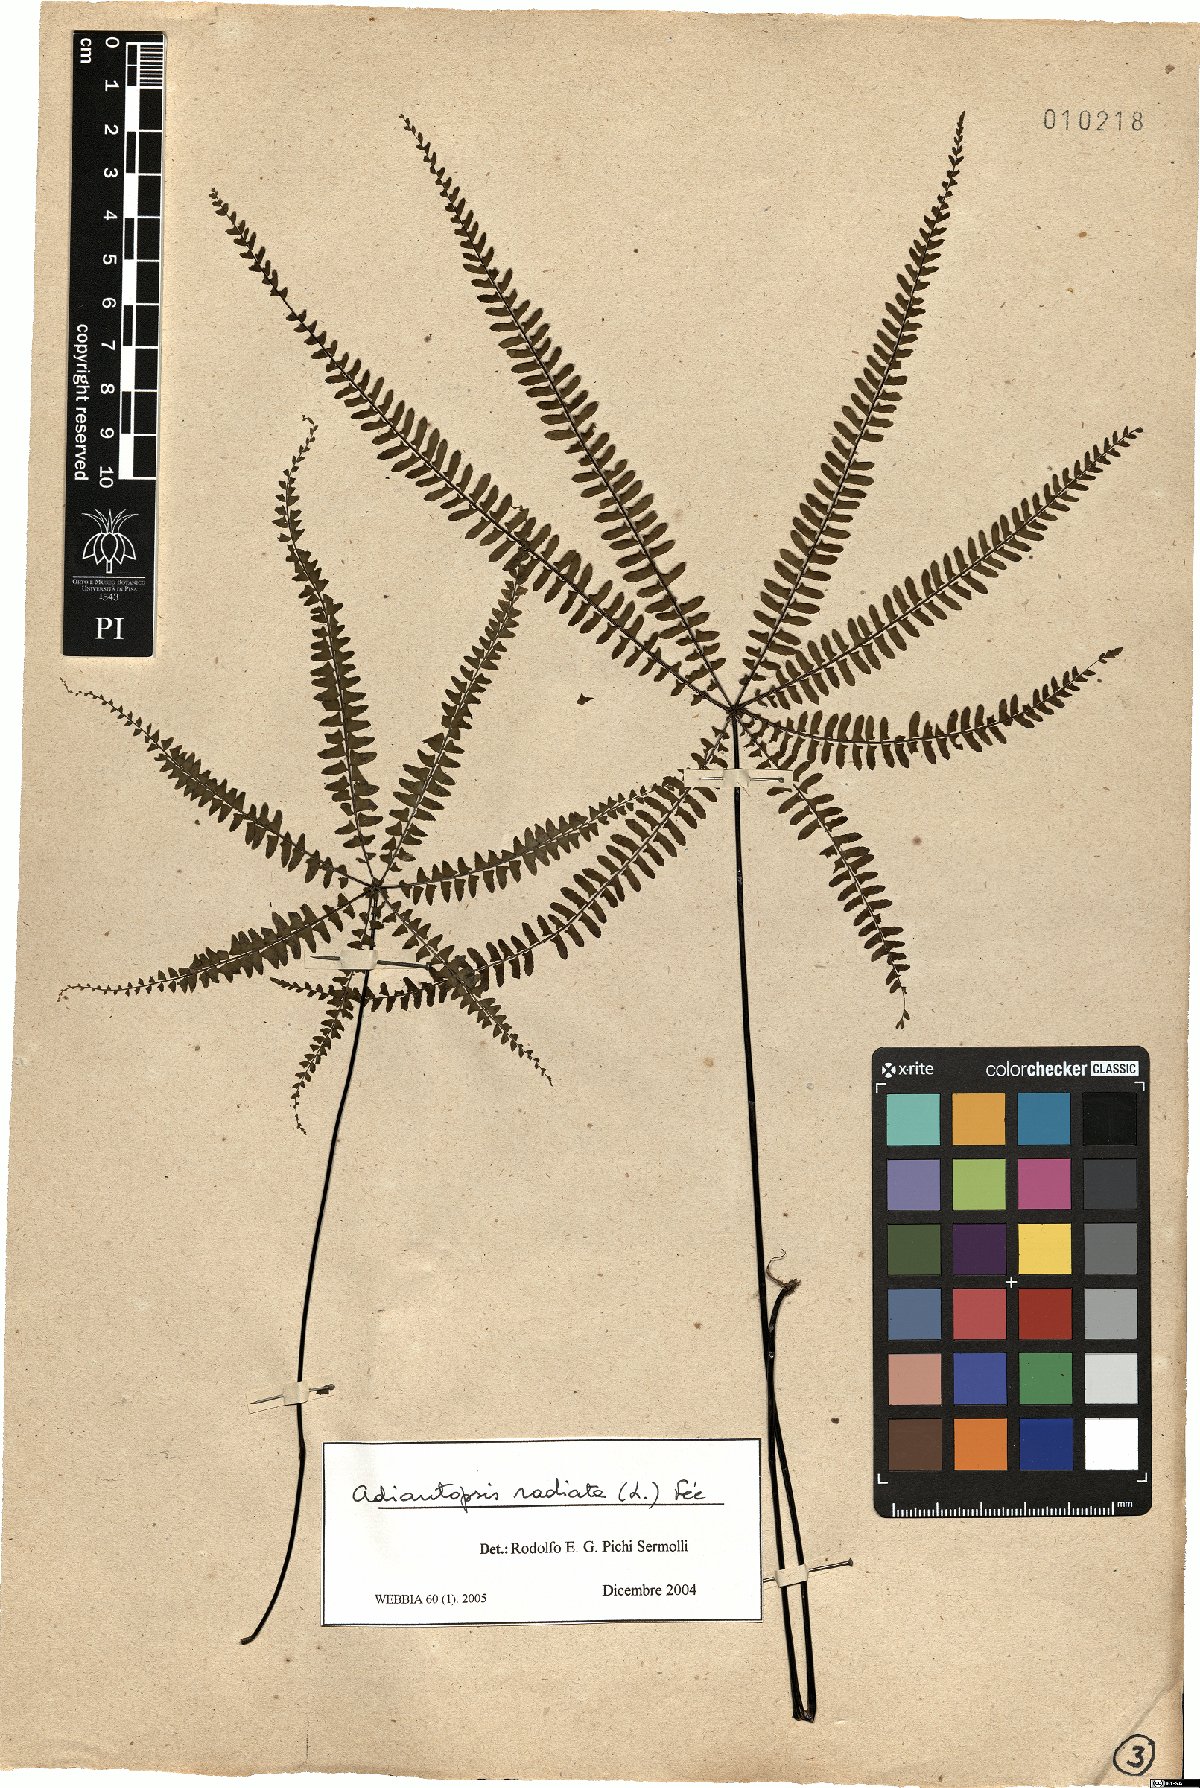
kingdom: Plantae
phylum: Tracheophyta
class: Polypodiopsida
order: Polypodiales
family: Pteridaceae
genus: Adiantopsis
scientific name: Adiantopsis radiata
